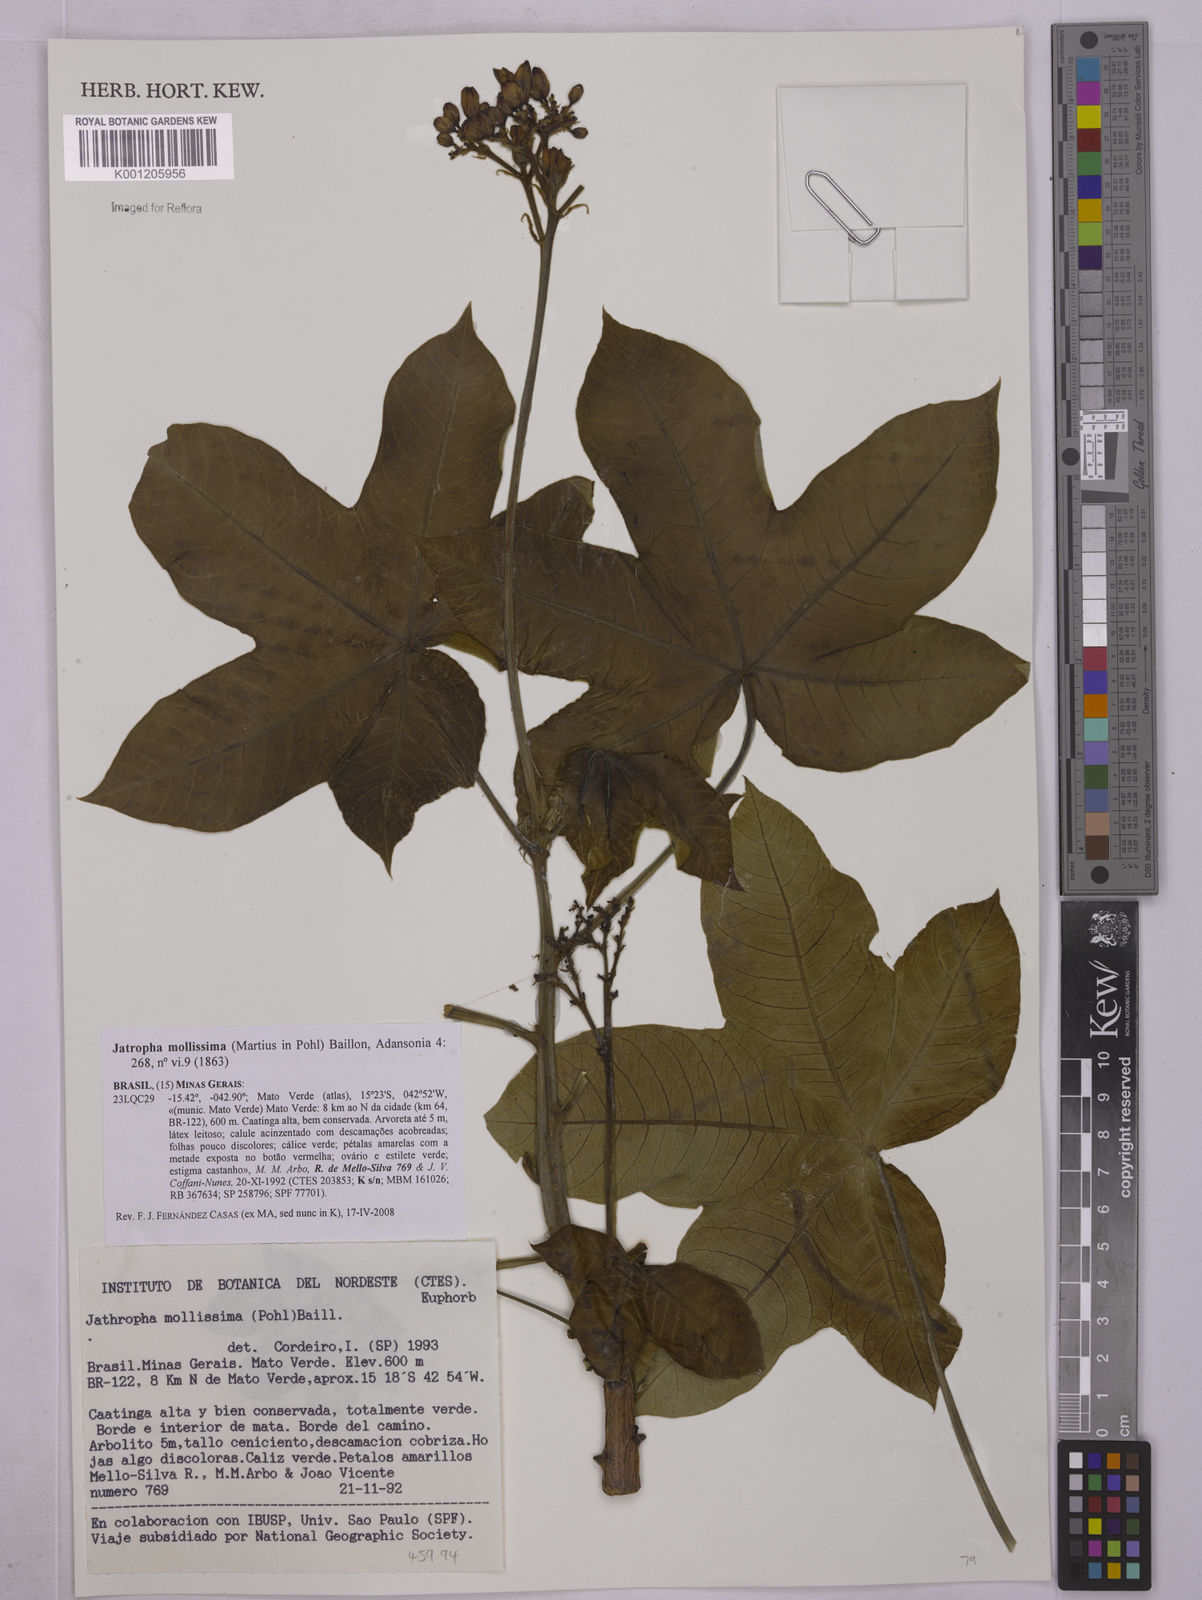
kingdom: Plantae
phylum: Tracheophyta
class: Magnoliopsida
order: Malpighiales
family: Euphorbiaceae
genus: Jatropha
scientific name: Jatropha mollissima
